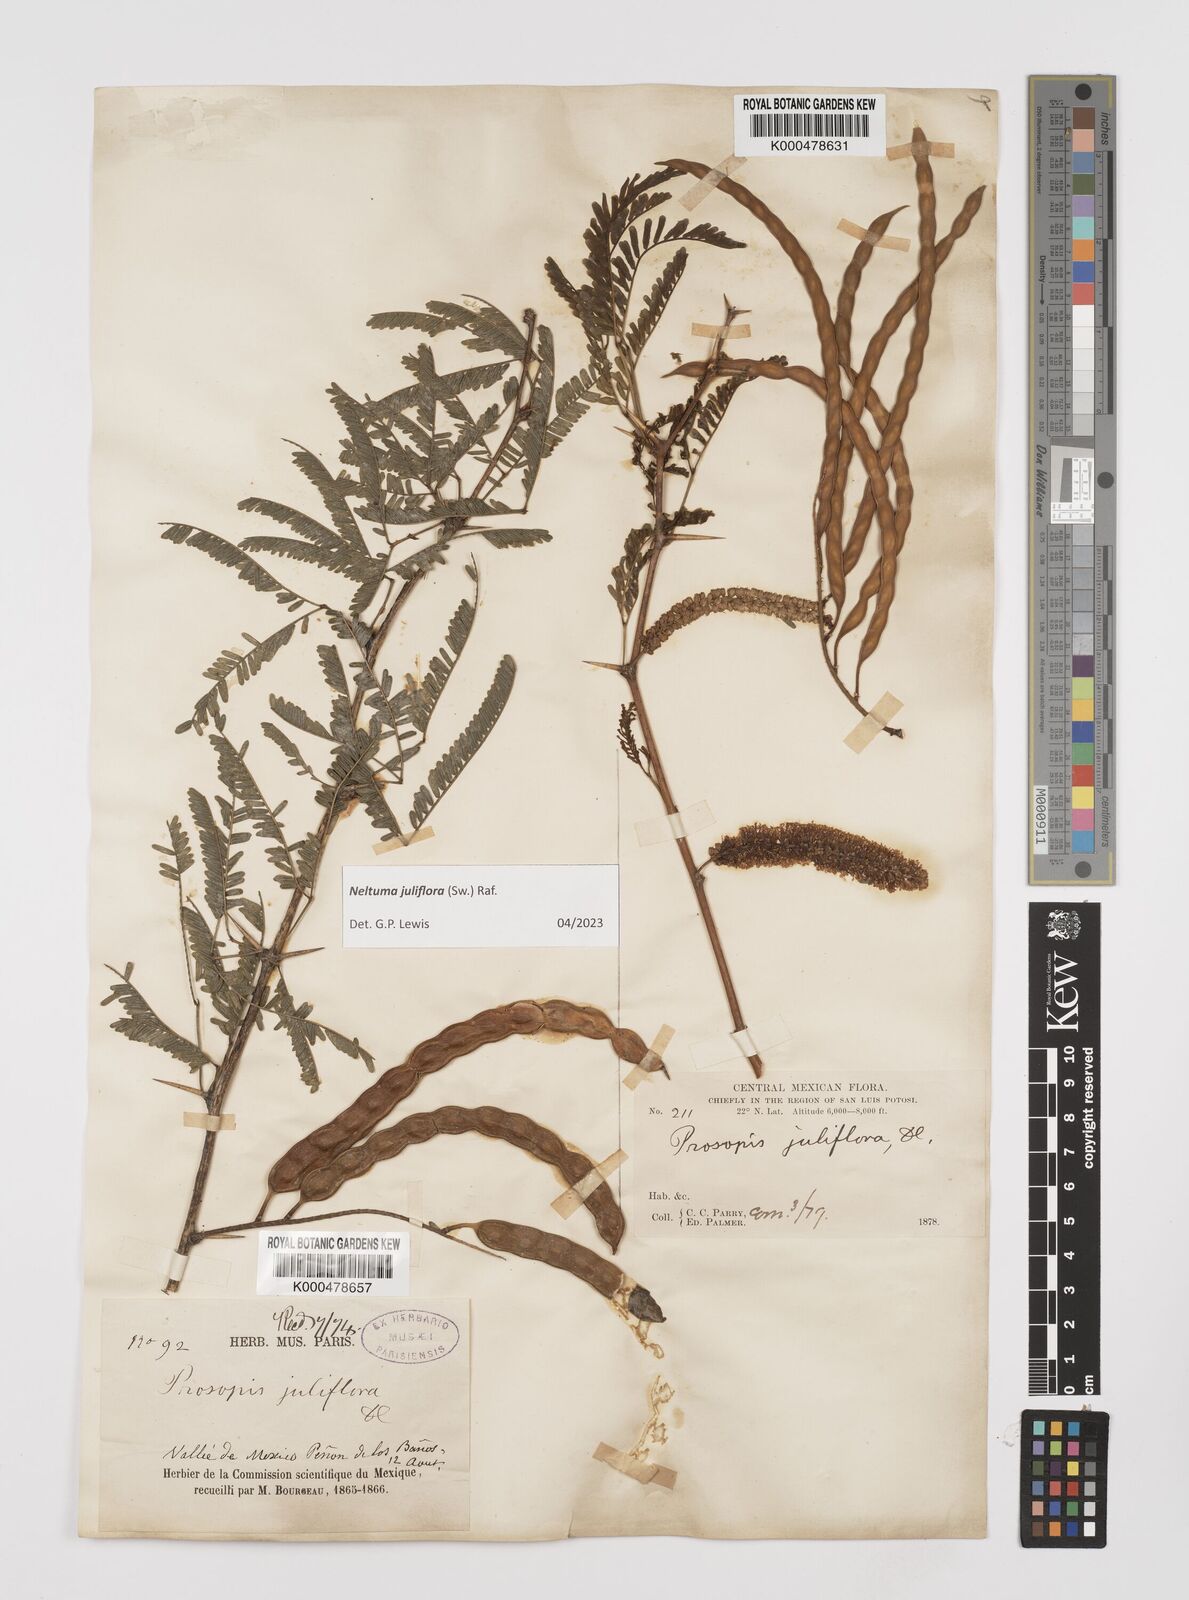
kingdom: Plantae
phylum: Tracheophyta
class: Magnoliopsida
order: Fabales
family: Fabaceae
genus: Prosopis
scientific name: Prosopis juliflora
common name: Mesquite
